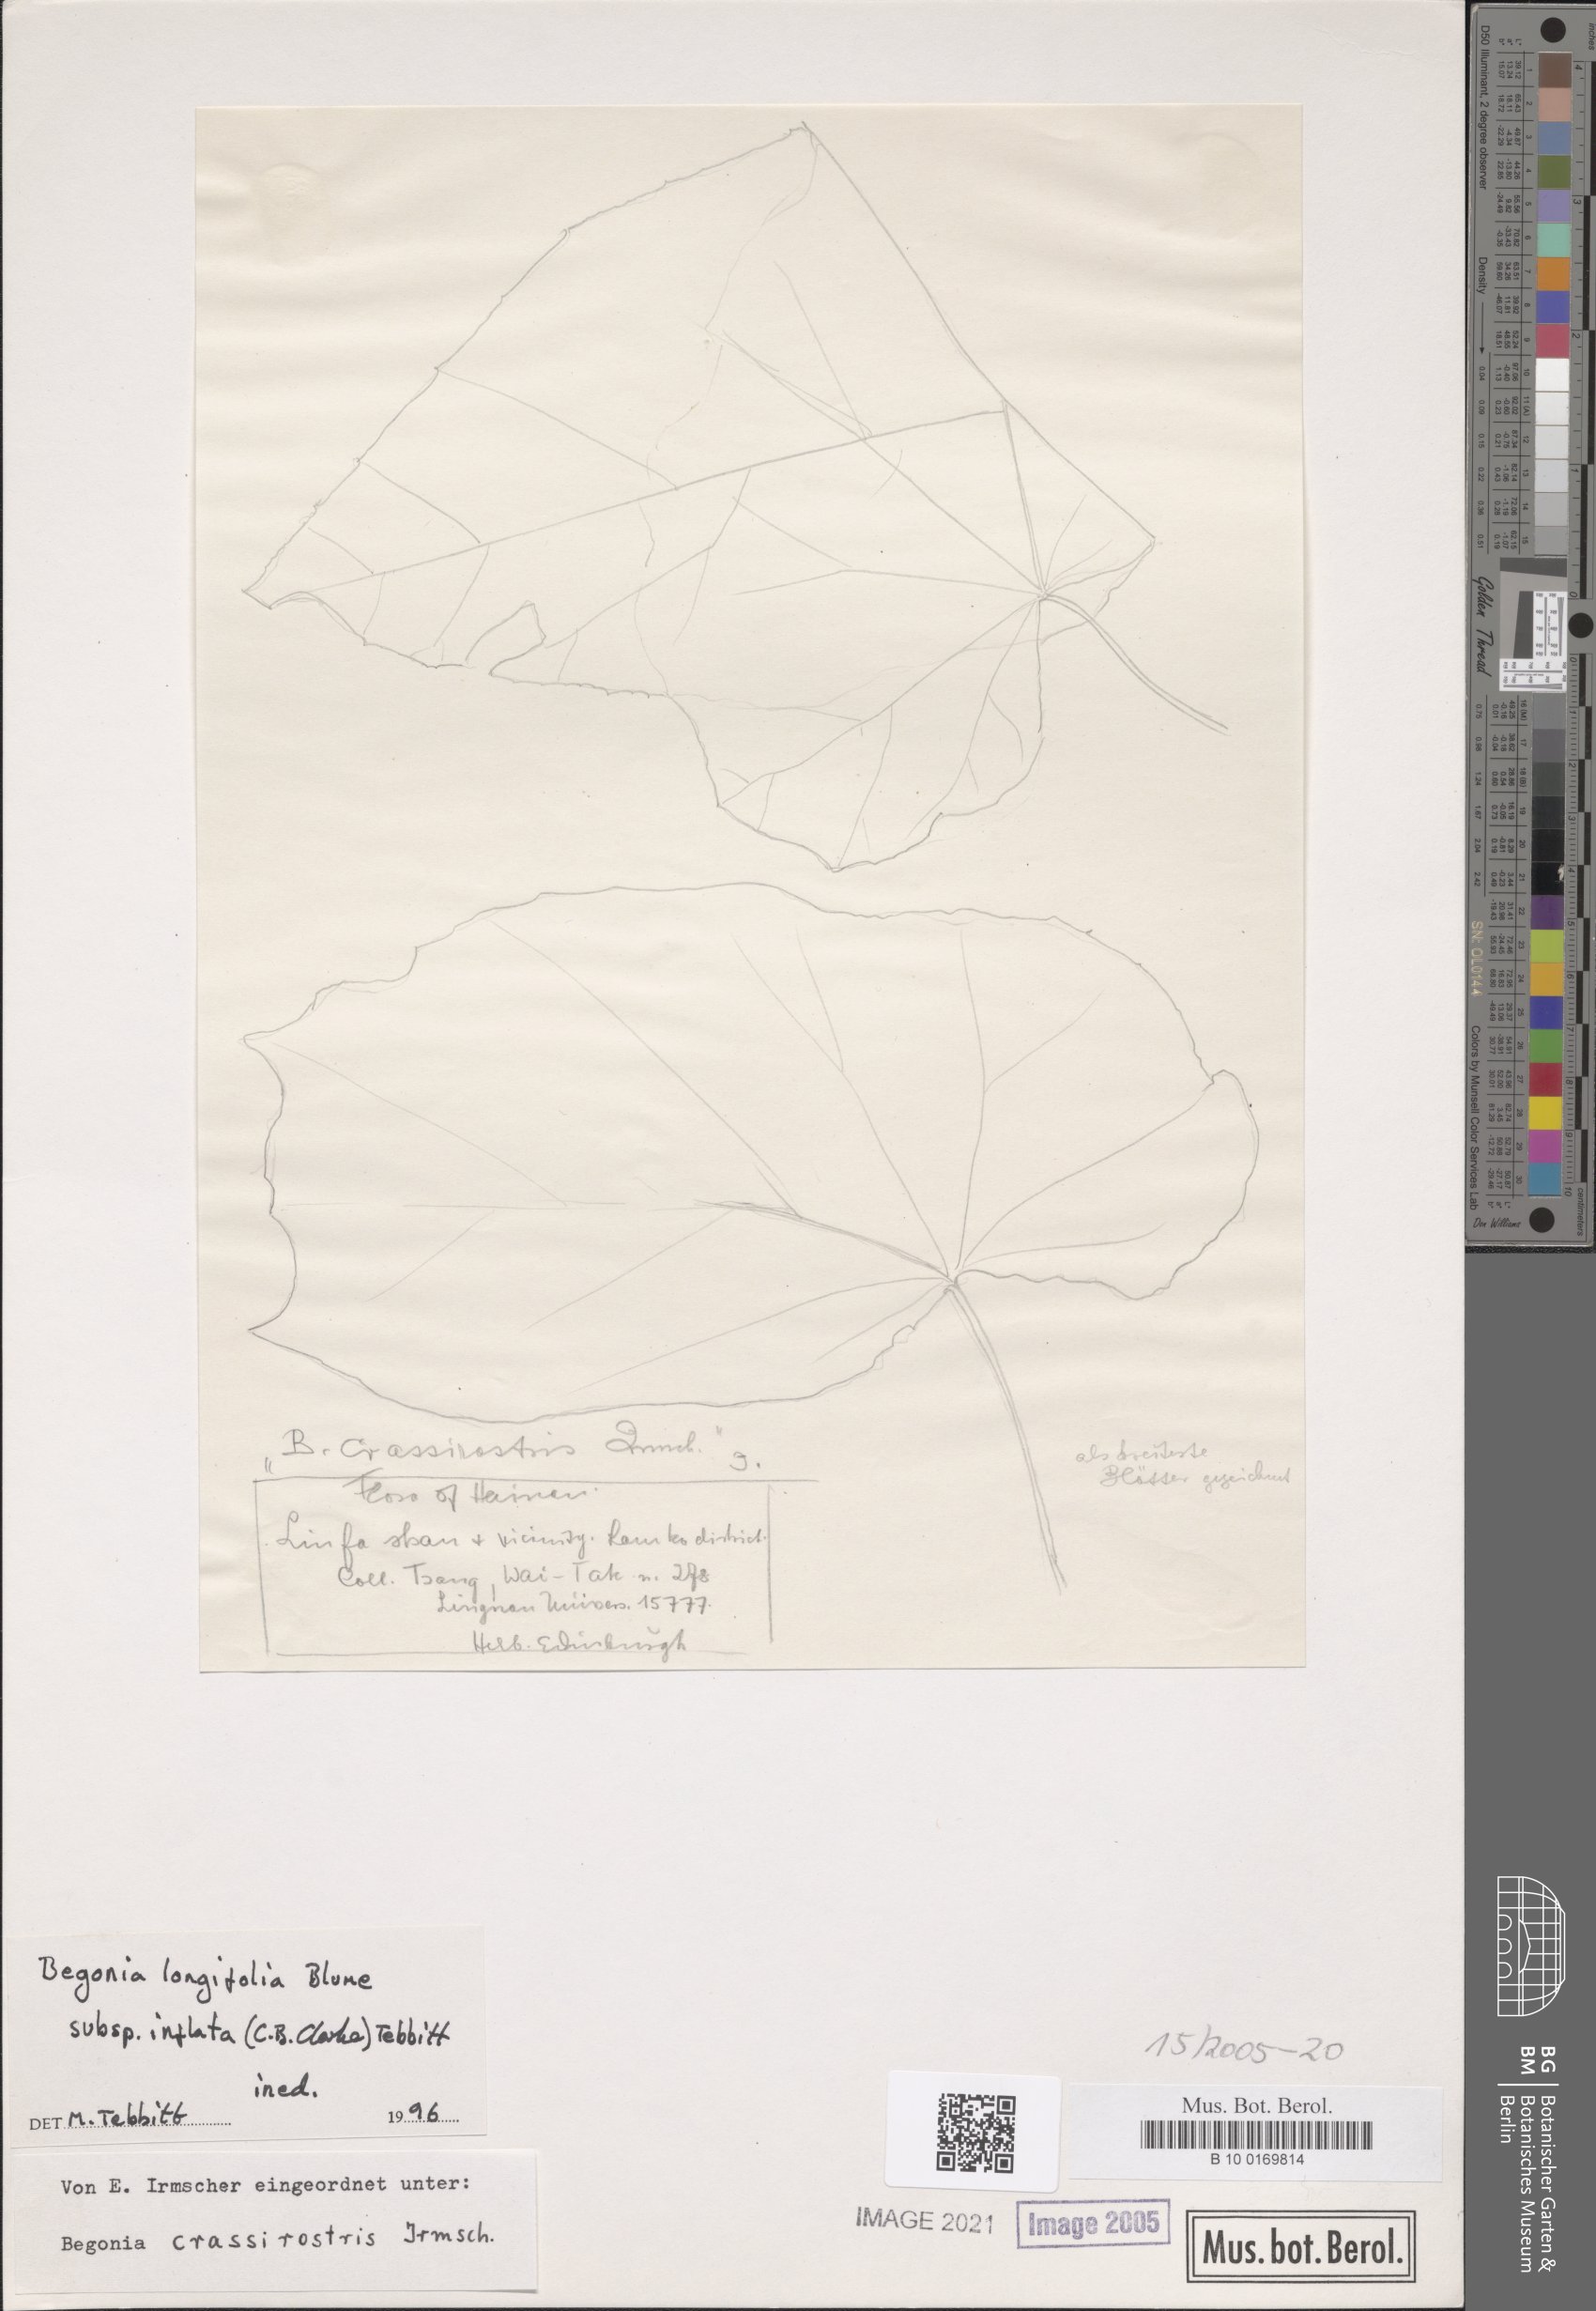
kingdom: Plantae
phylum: Tracheophyta
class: Magnoliopsida
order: Cucurbitales
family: Begoniaceae
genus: Begonia
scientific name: Begonia longifolia
